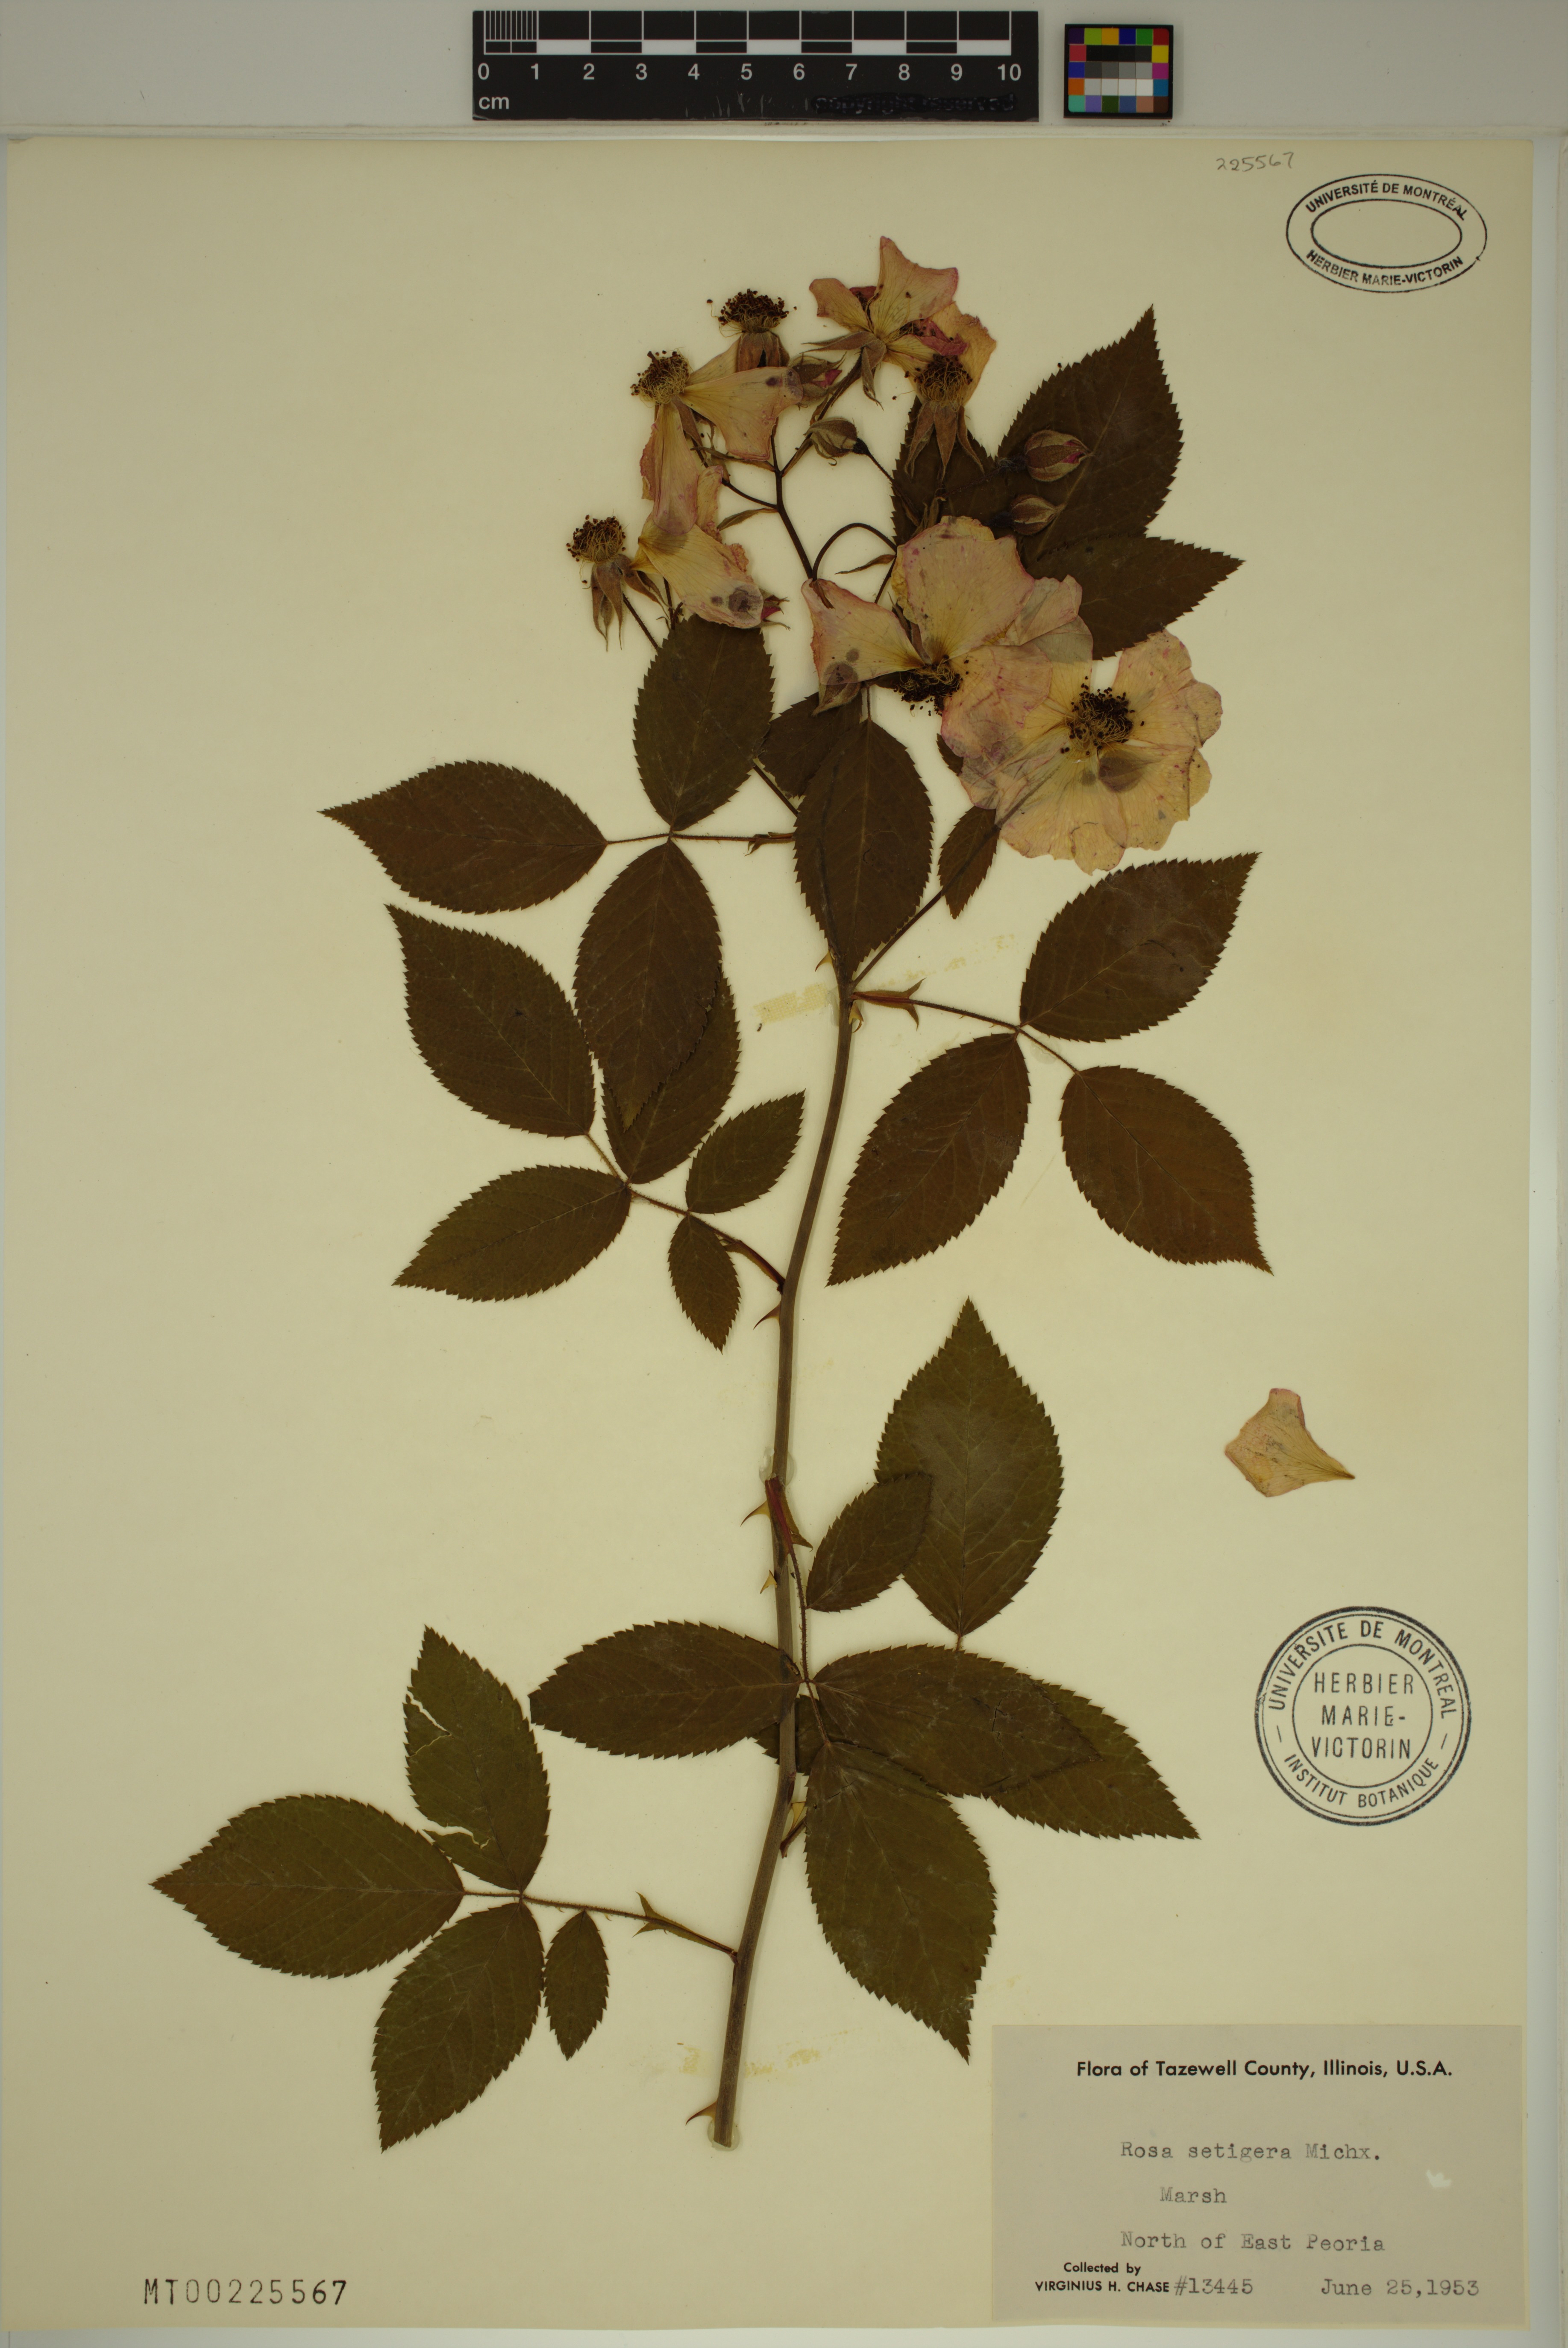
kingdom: Plantae
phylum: Tracheophyta
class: Magnoliopsida
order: Rosales
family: Rosaceae
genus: Rosa
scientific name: Rosa setigera
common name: Prairie rose
